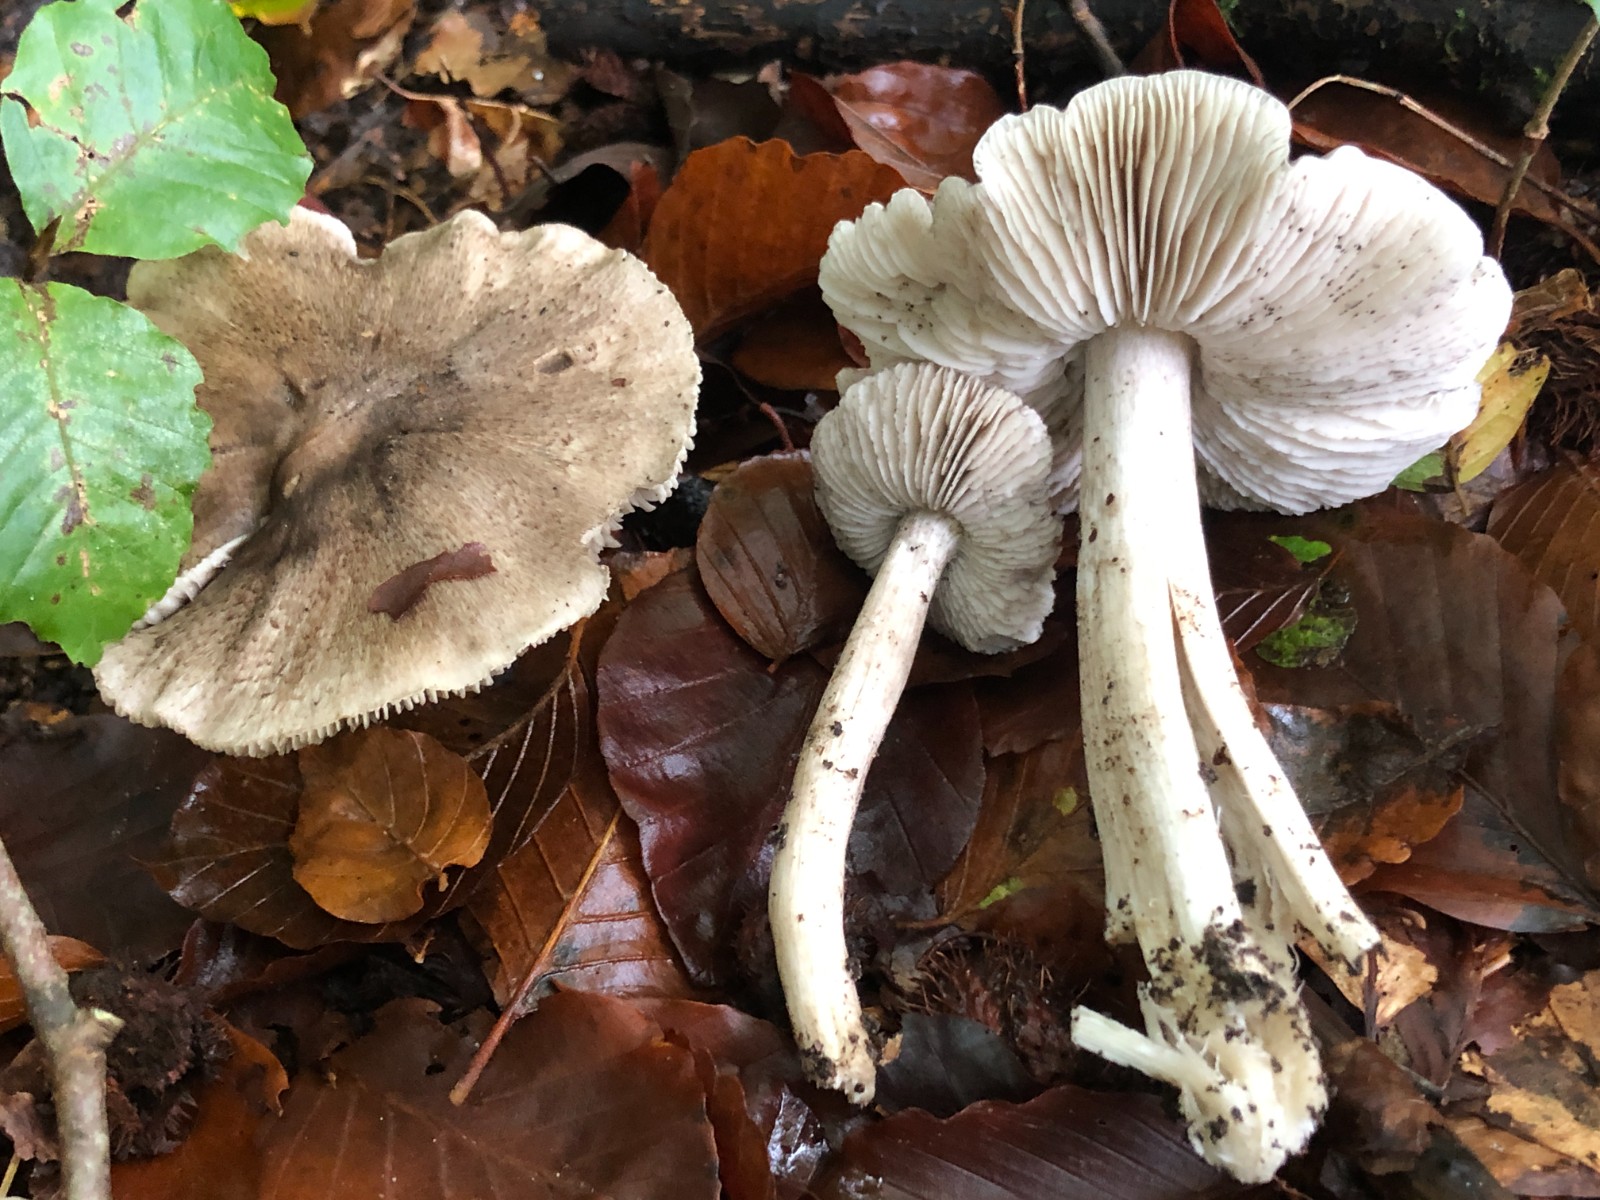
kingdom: Fungi
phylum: Basidiomycota
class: Agaricomycetes
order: Agaricales
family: Tricholomataceae
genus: Tricholoma
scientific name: Tricholoma sciodes
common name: stribet ridderhat
